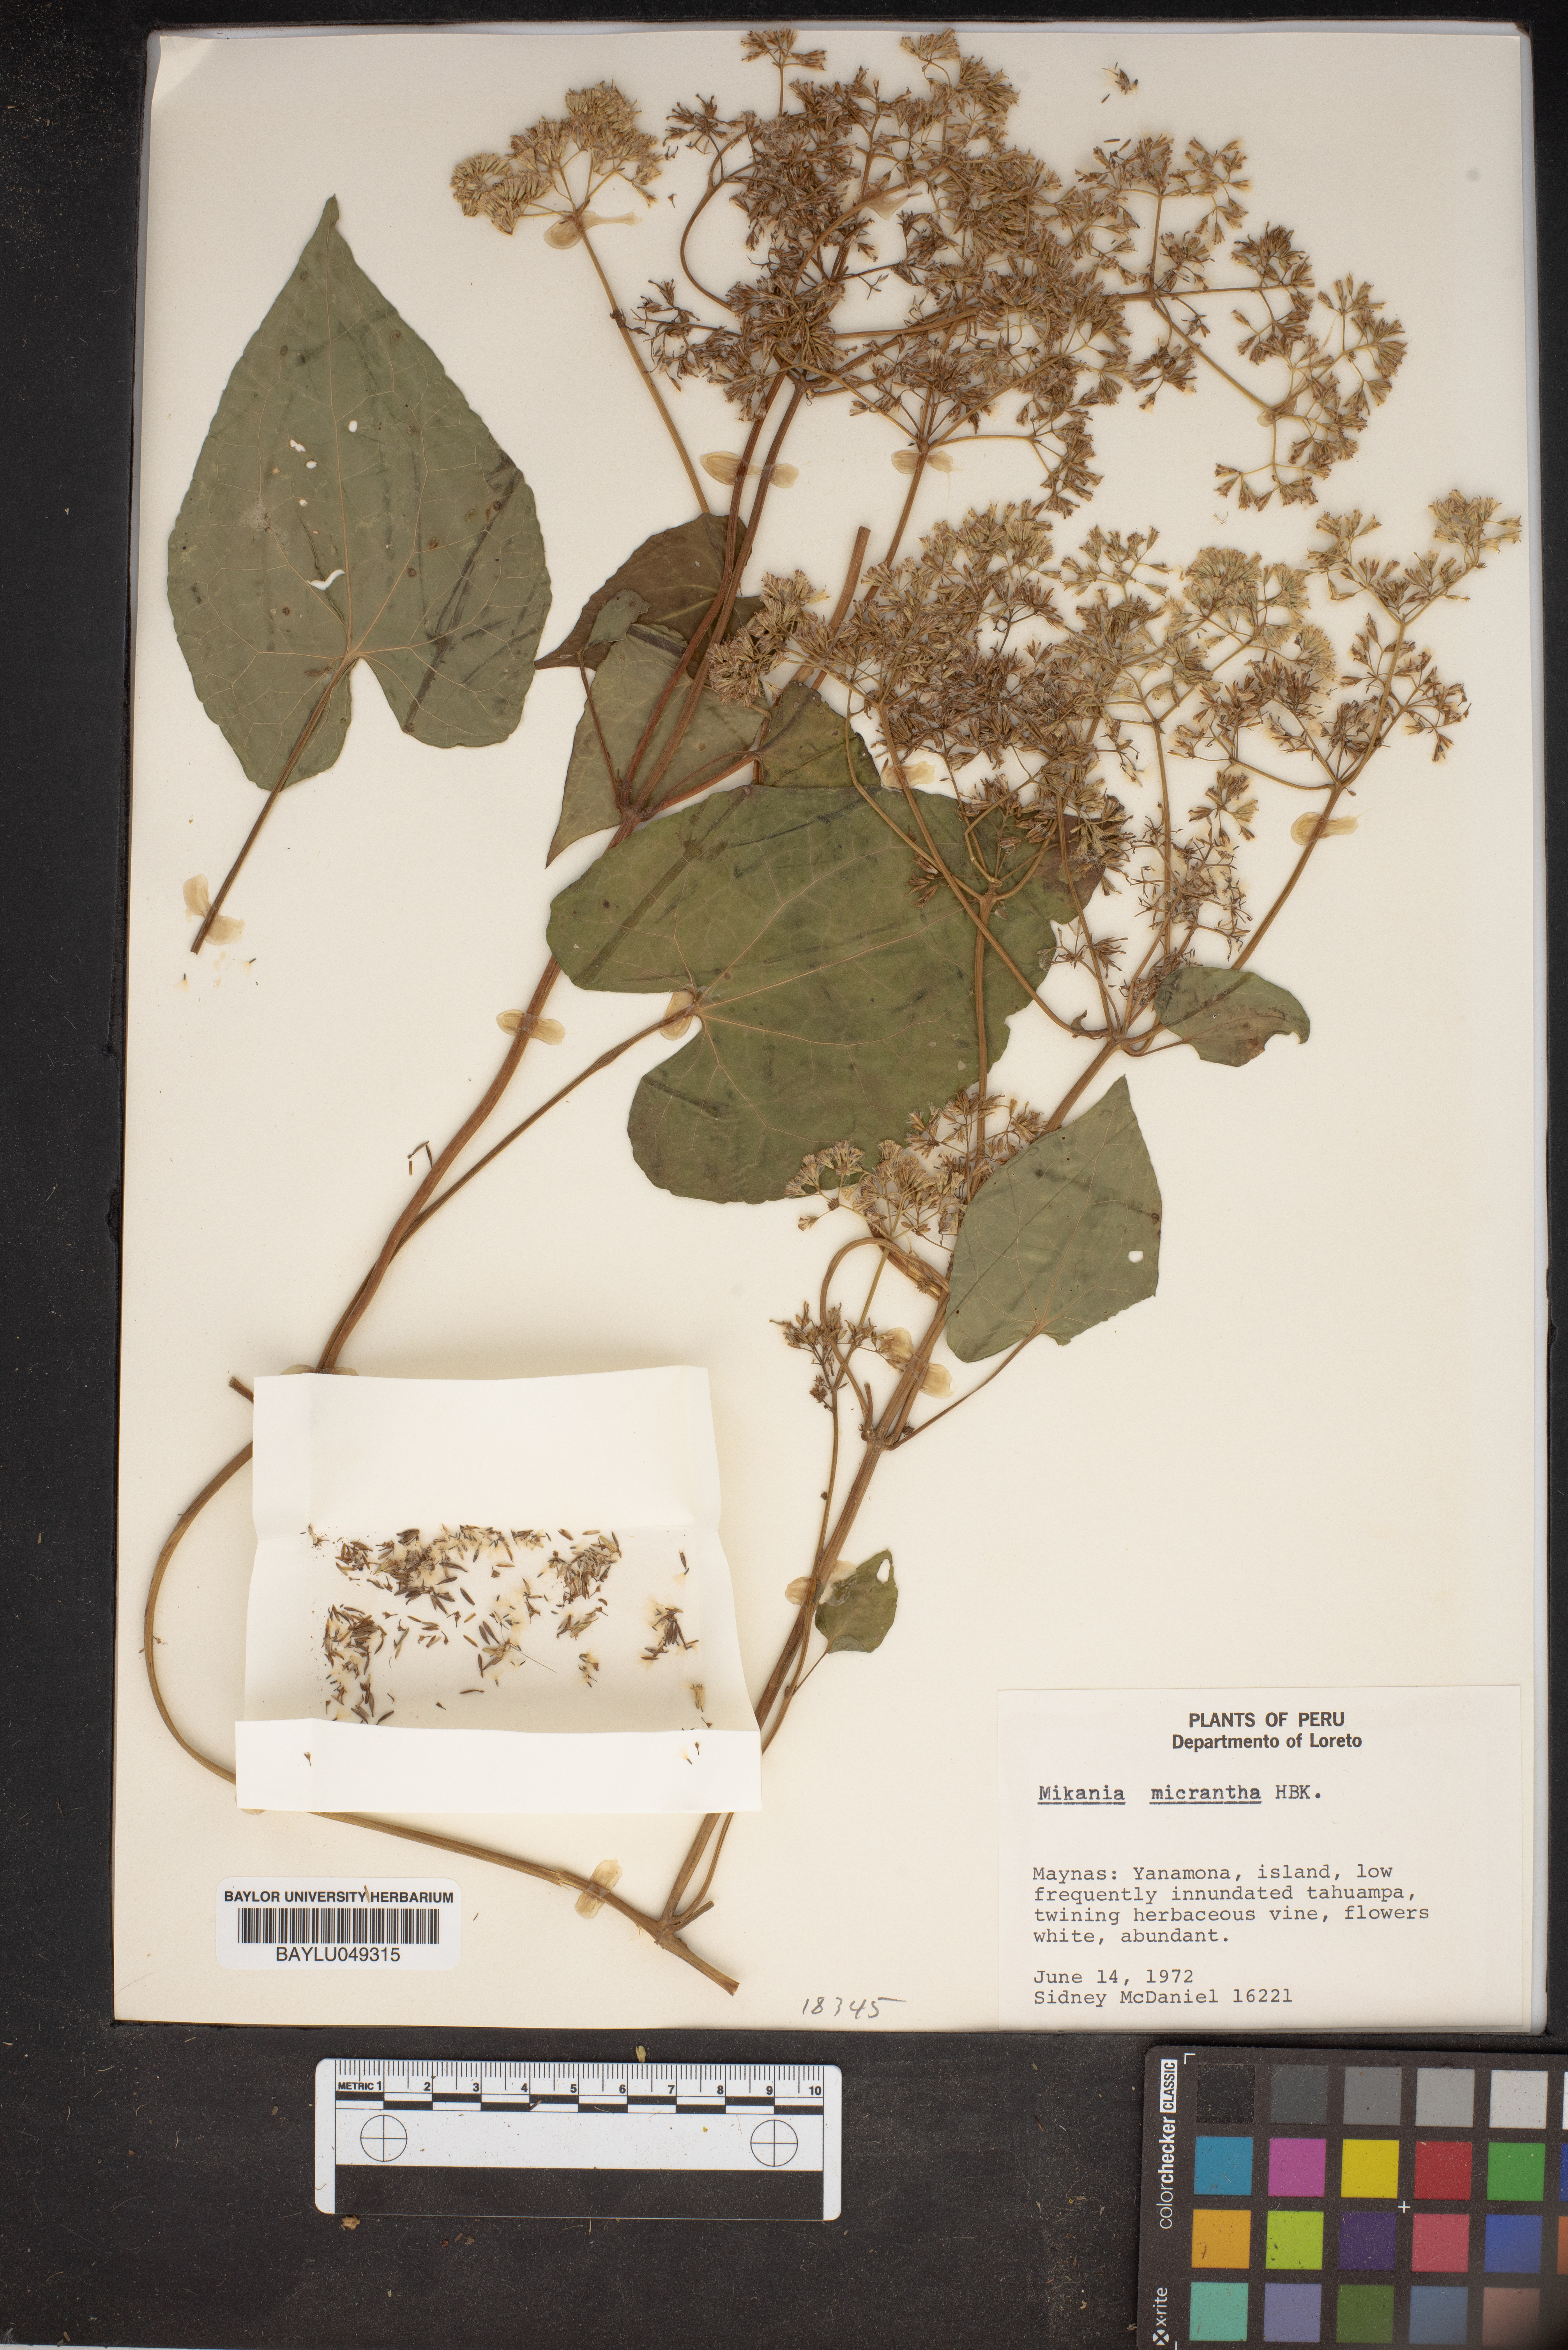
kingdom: Plantae
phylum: Tracheophyta
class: Magnoliopsida
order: Asterales
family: Asteraceae
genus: Mikania
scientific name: Mikania micrantha
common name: Mile-a-minute
